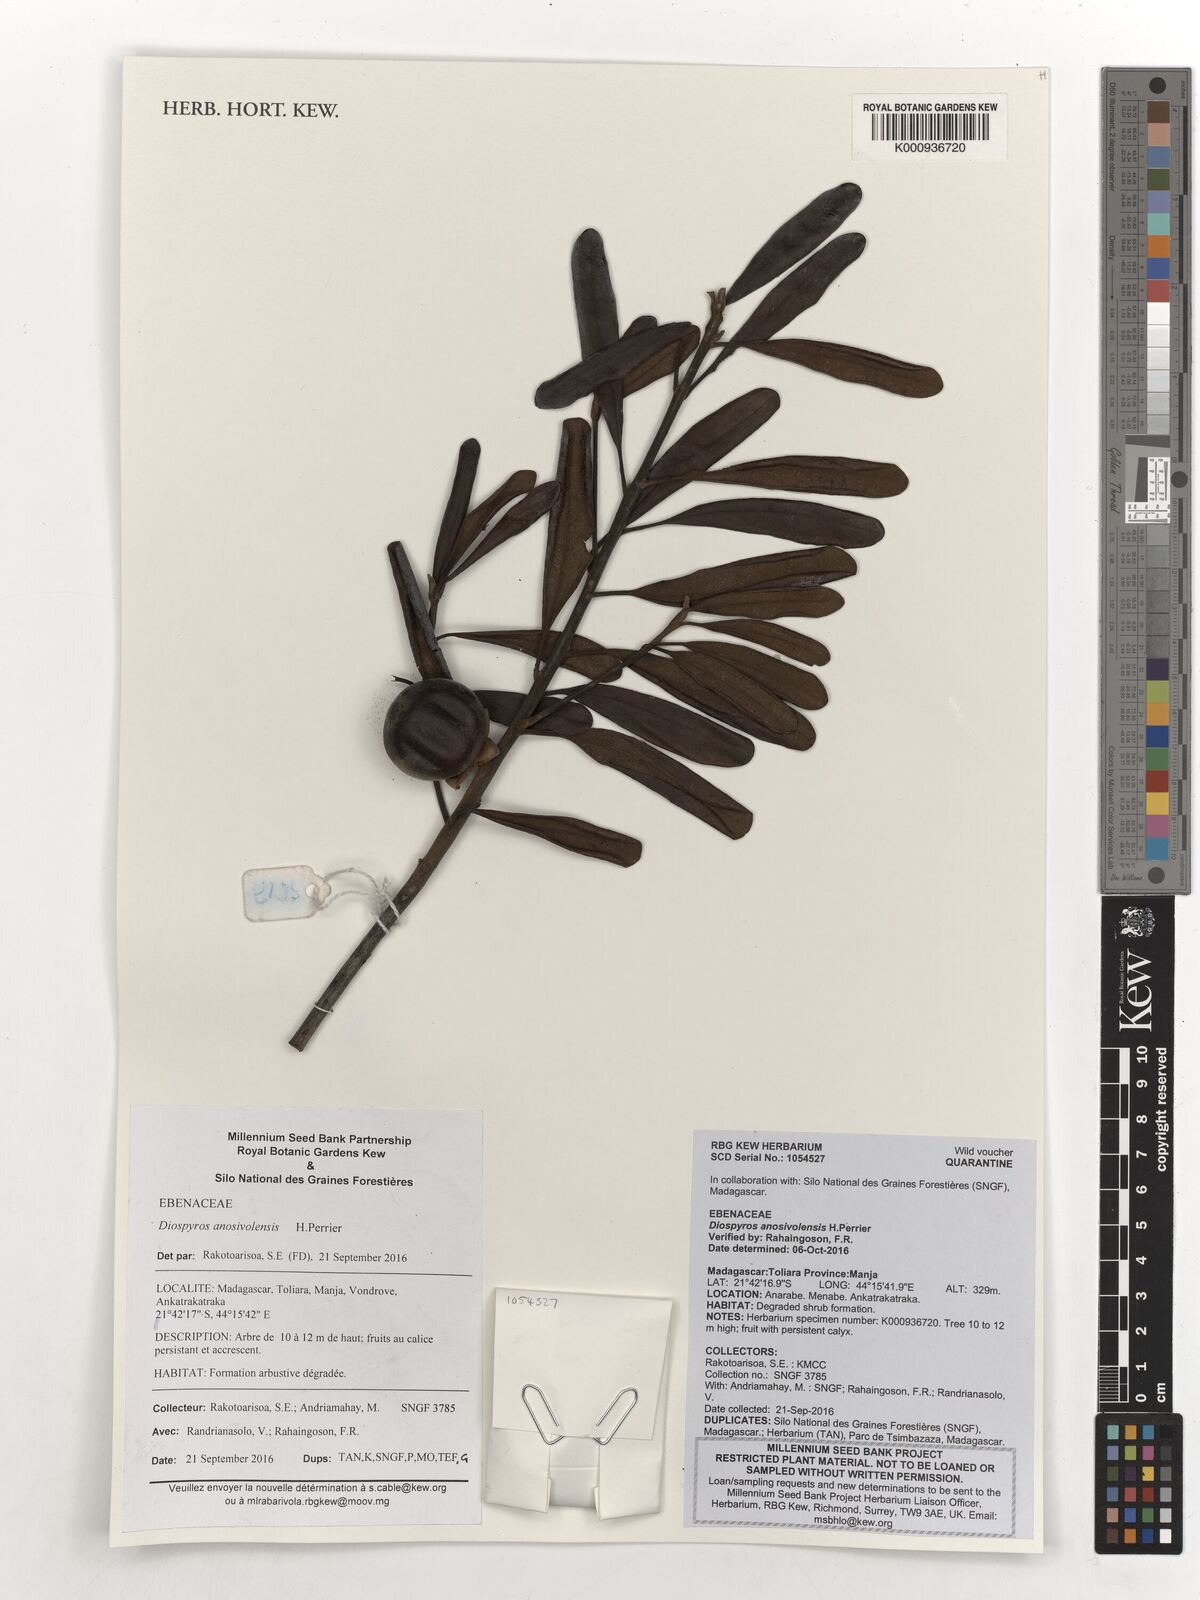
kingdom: Plantae
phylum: Tracheophyta
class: Magnoliopsida
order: Ericales
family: Ebenaceae
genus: Diospyros
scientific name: Diospyros anosivolensis
